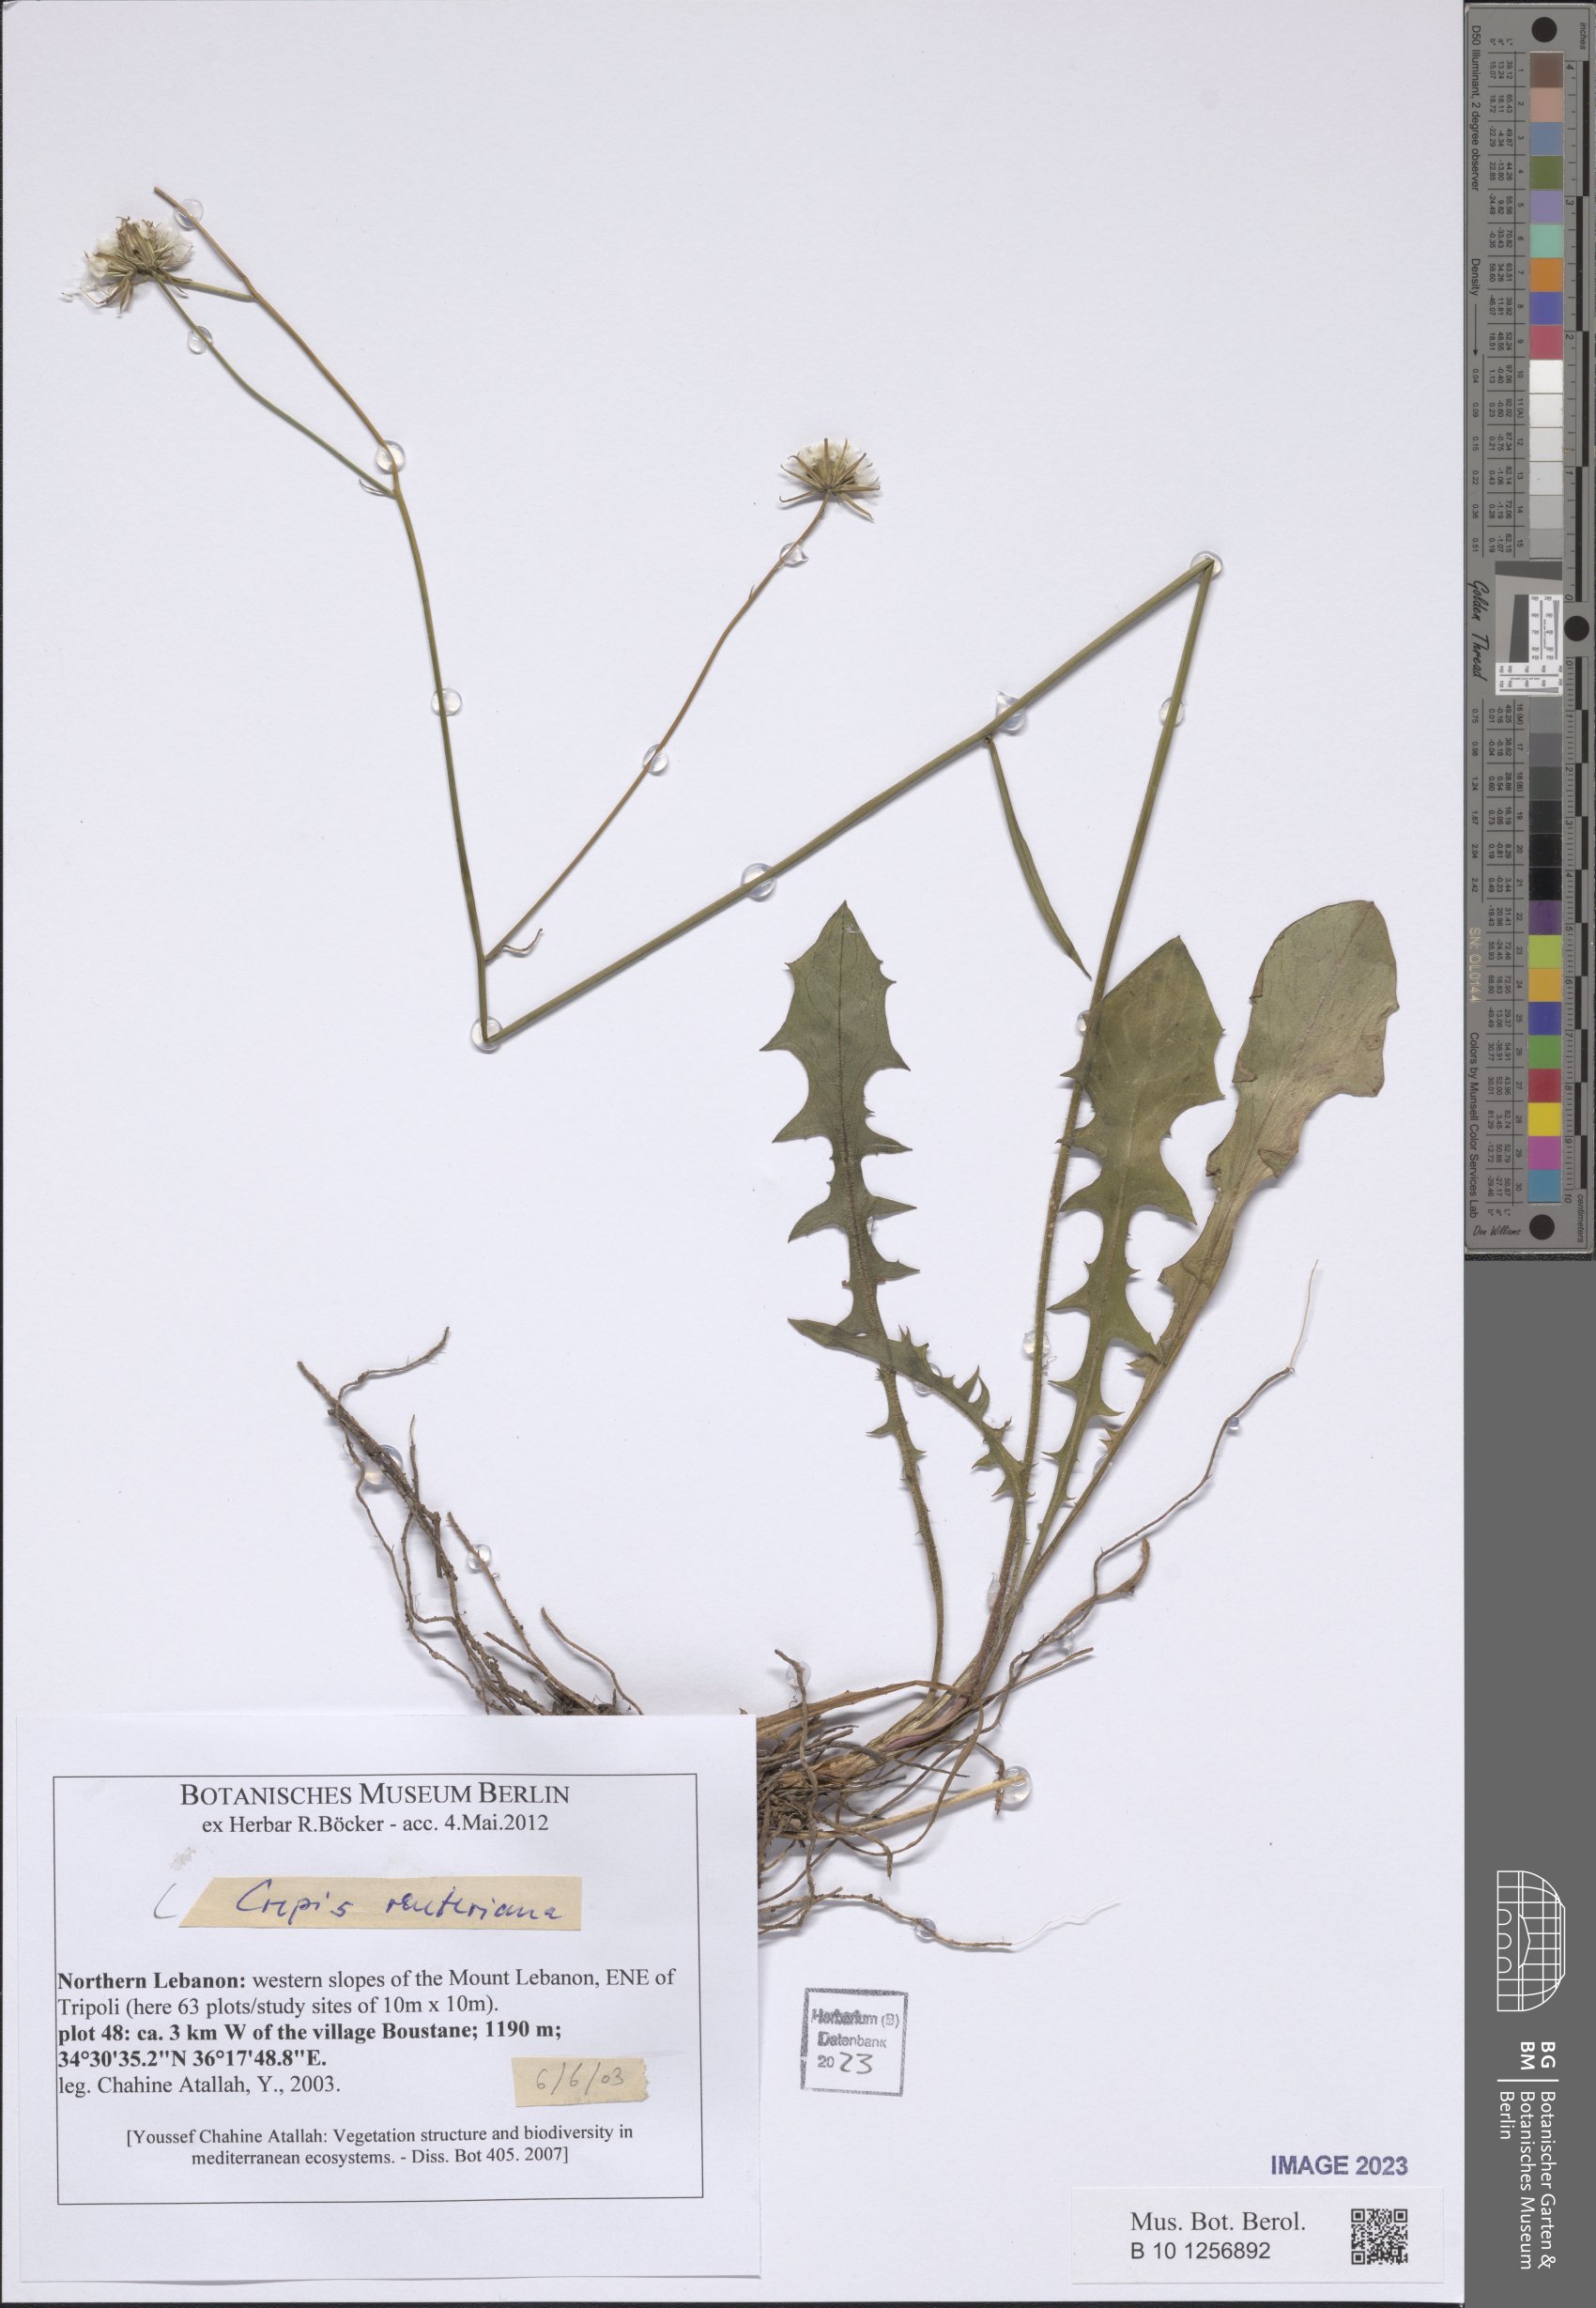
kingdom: Plantae
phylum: Tracheophyta
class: Magnoliopsida
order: Asterales
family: Asteraceae
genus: Crepis
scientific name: Crepis reuteriana
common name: Hawk's-beard
